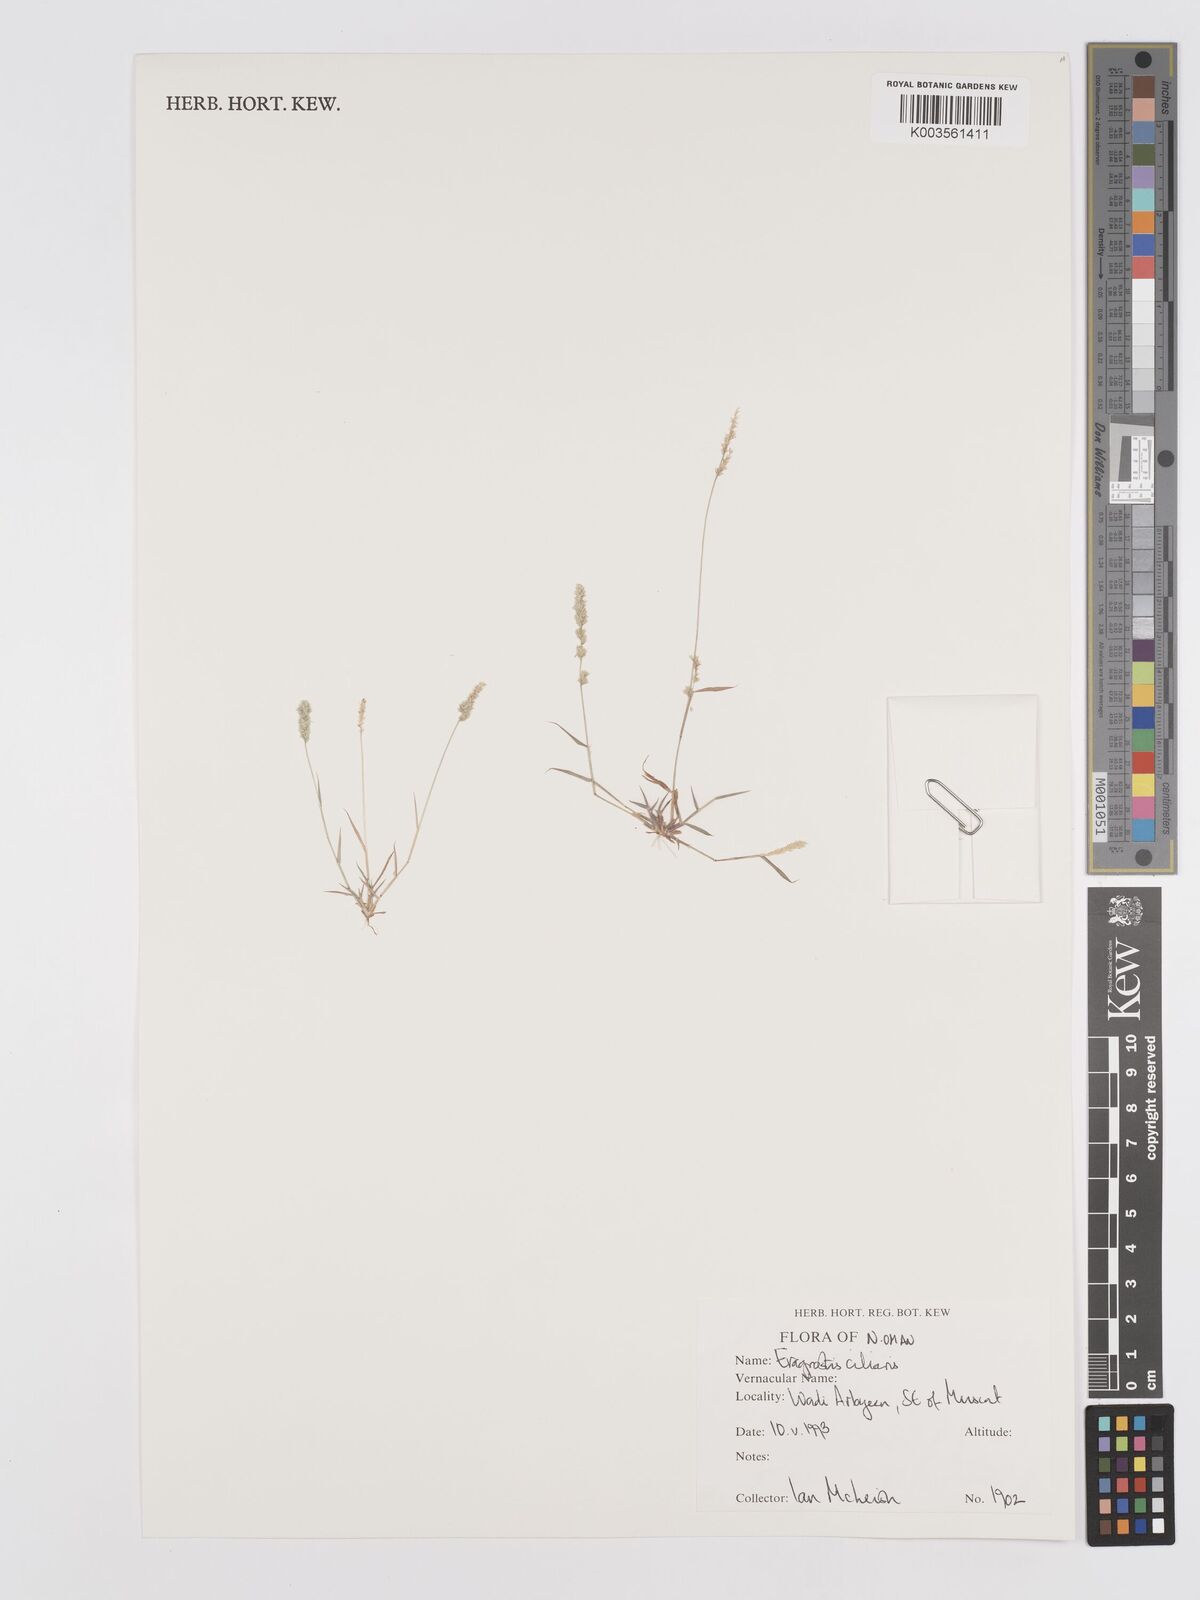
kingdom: Plantae
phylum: Tracheophyta
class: Liliopsida
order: Poales
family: Poaceae
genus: Eragrostis
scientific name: Eragrostis ciliaris
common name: Gophertail lovegrass
